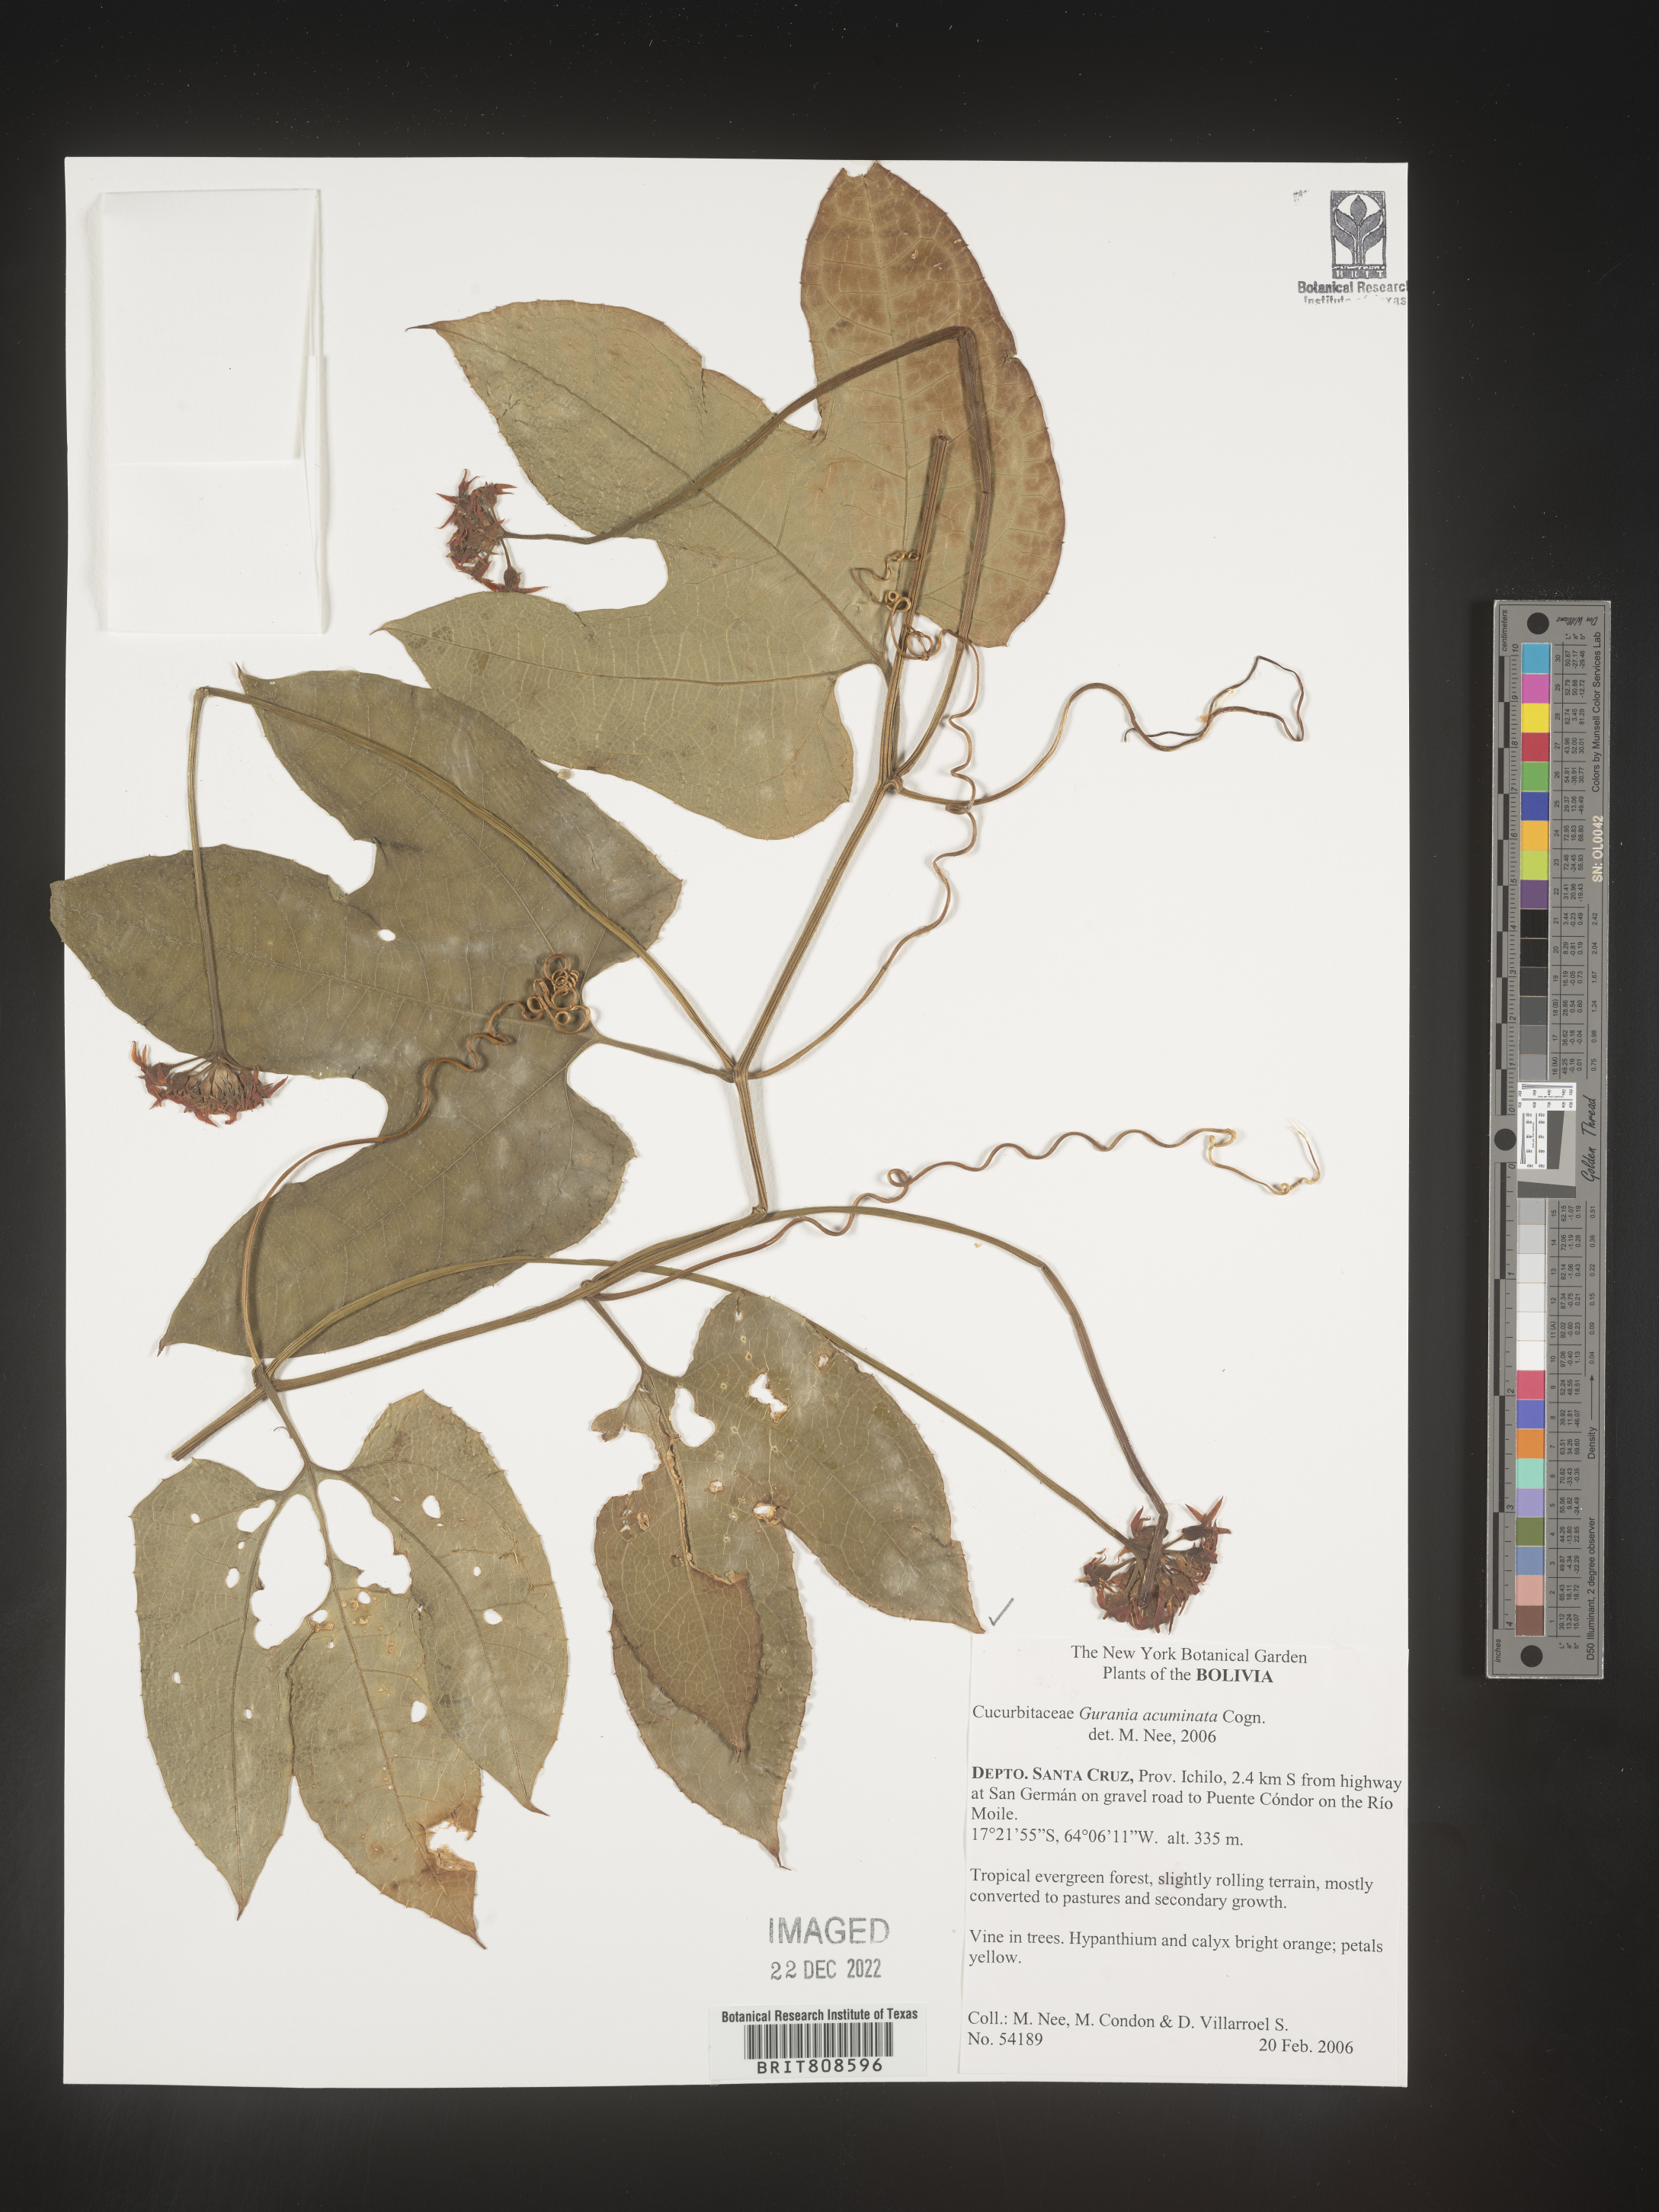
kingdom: Plantae
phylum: Tracheophyta
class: Magnoliopsida
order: Cucurbitales
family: Cucurbitaceae
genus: Gurania
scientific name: Gurania
